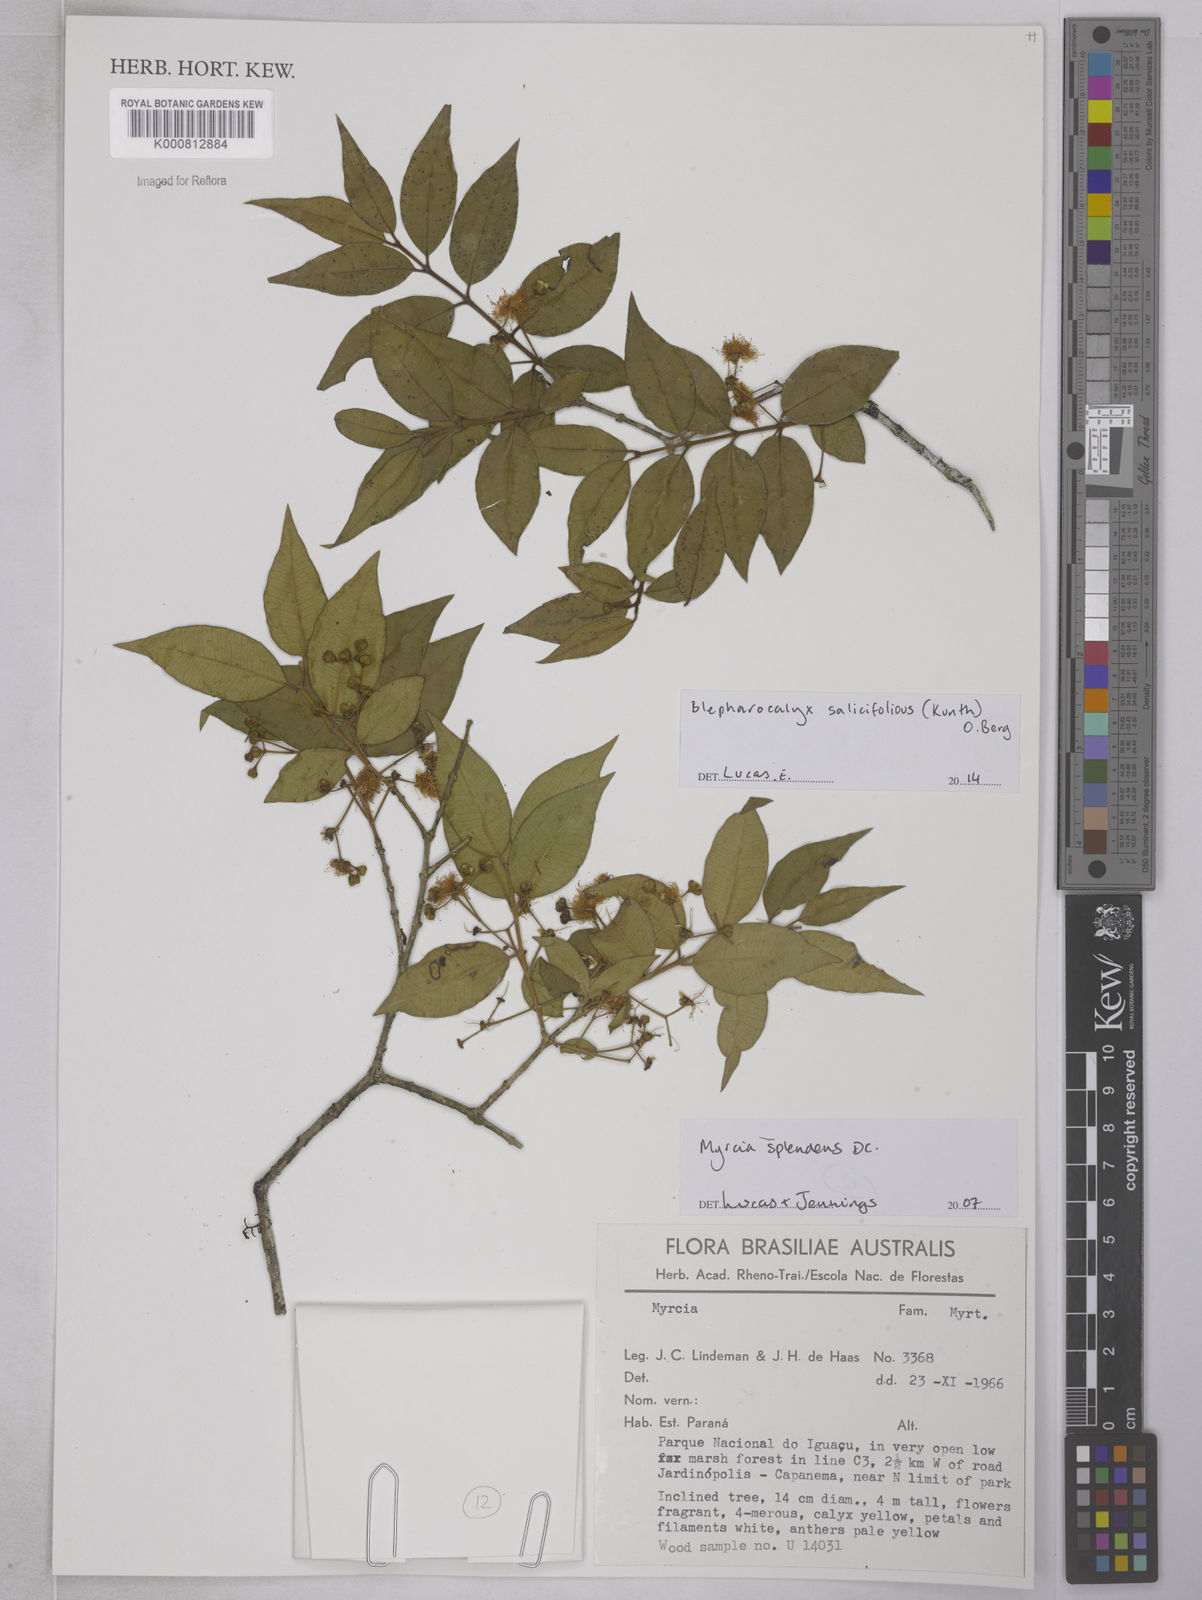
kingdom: Plantae
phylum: Tracheophyta
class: Magnoliopsida
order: Myrtales
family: Myrtaceae
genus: Blepharocalyx
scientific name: Blepharocalyx salicifolius
